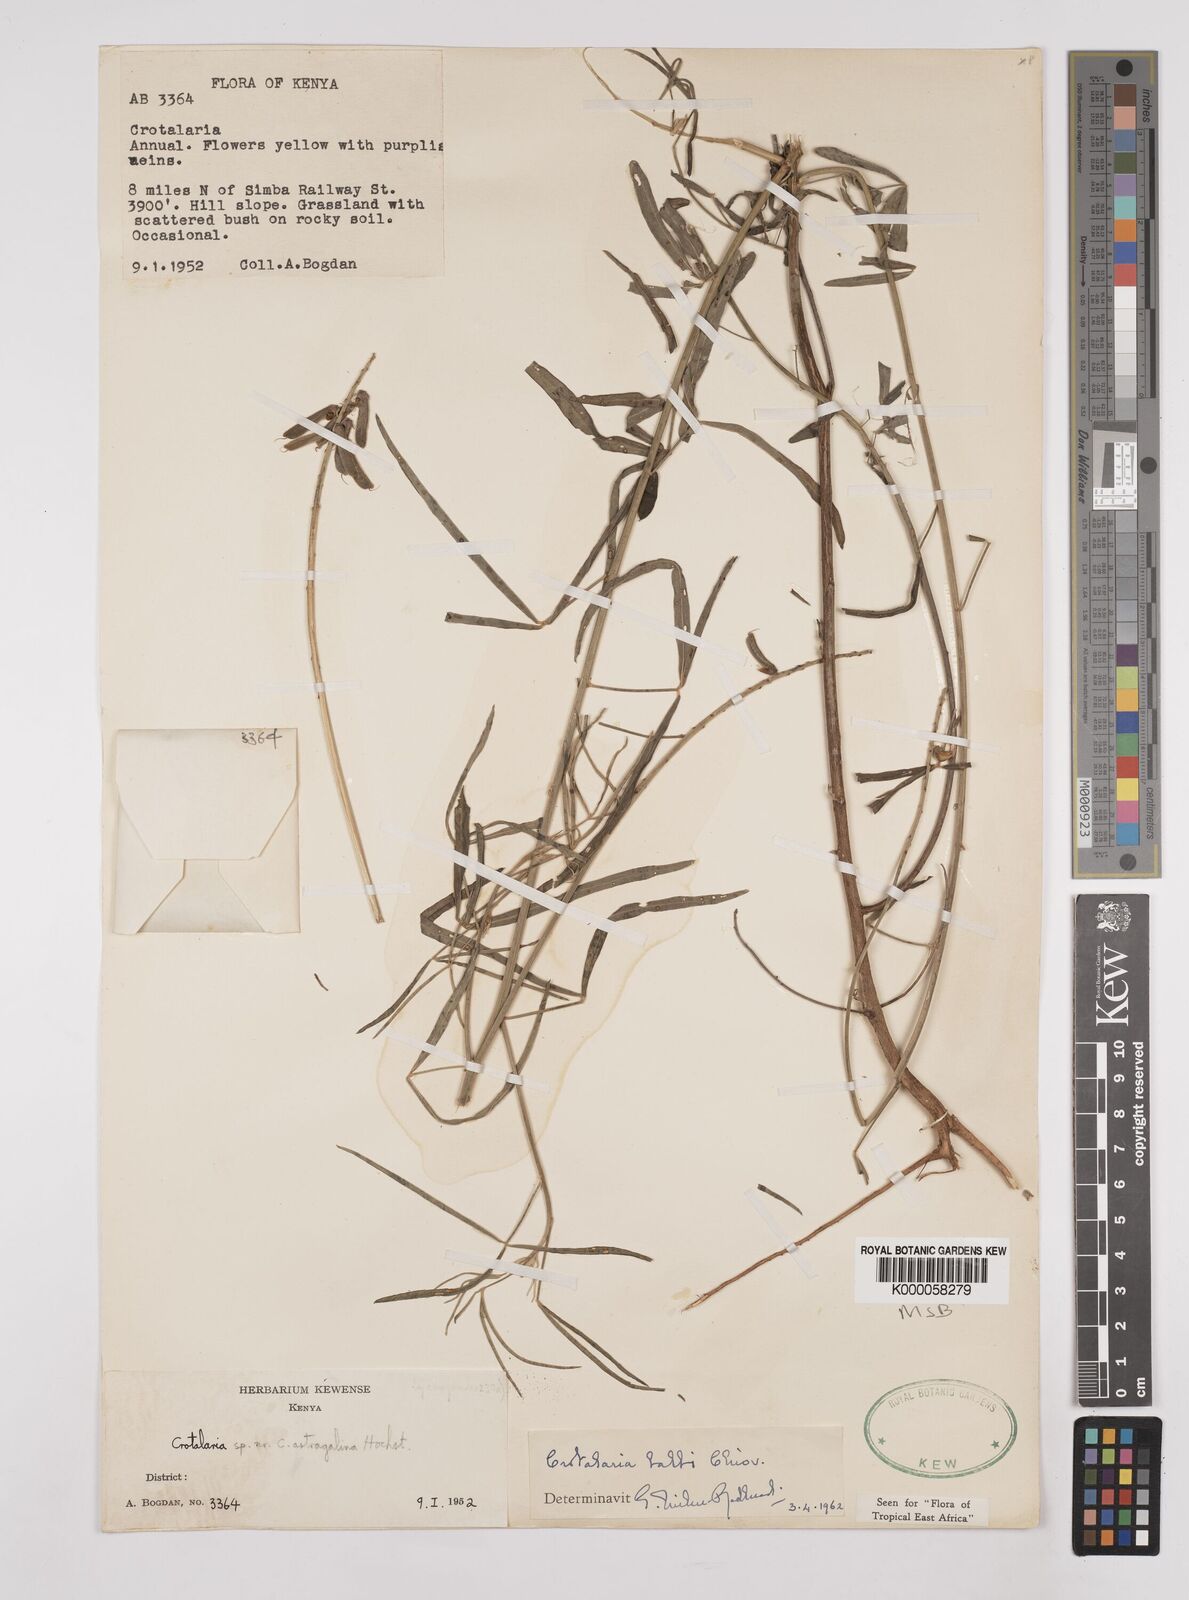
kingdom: Plantae
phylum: Tracheophyta
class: Magnoliopsida
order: Fabales
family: Fabaceae
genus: Crotalaria
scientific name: Crotalaria balbi
